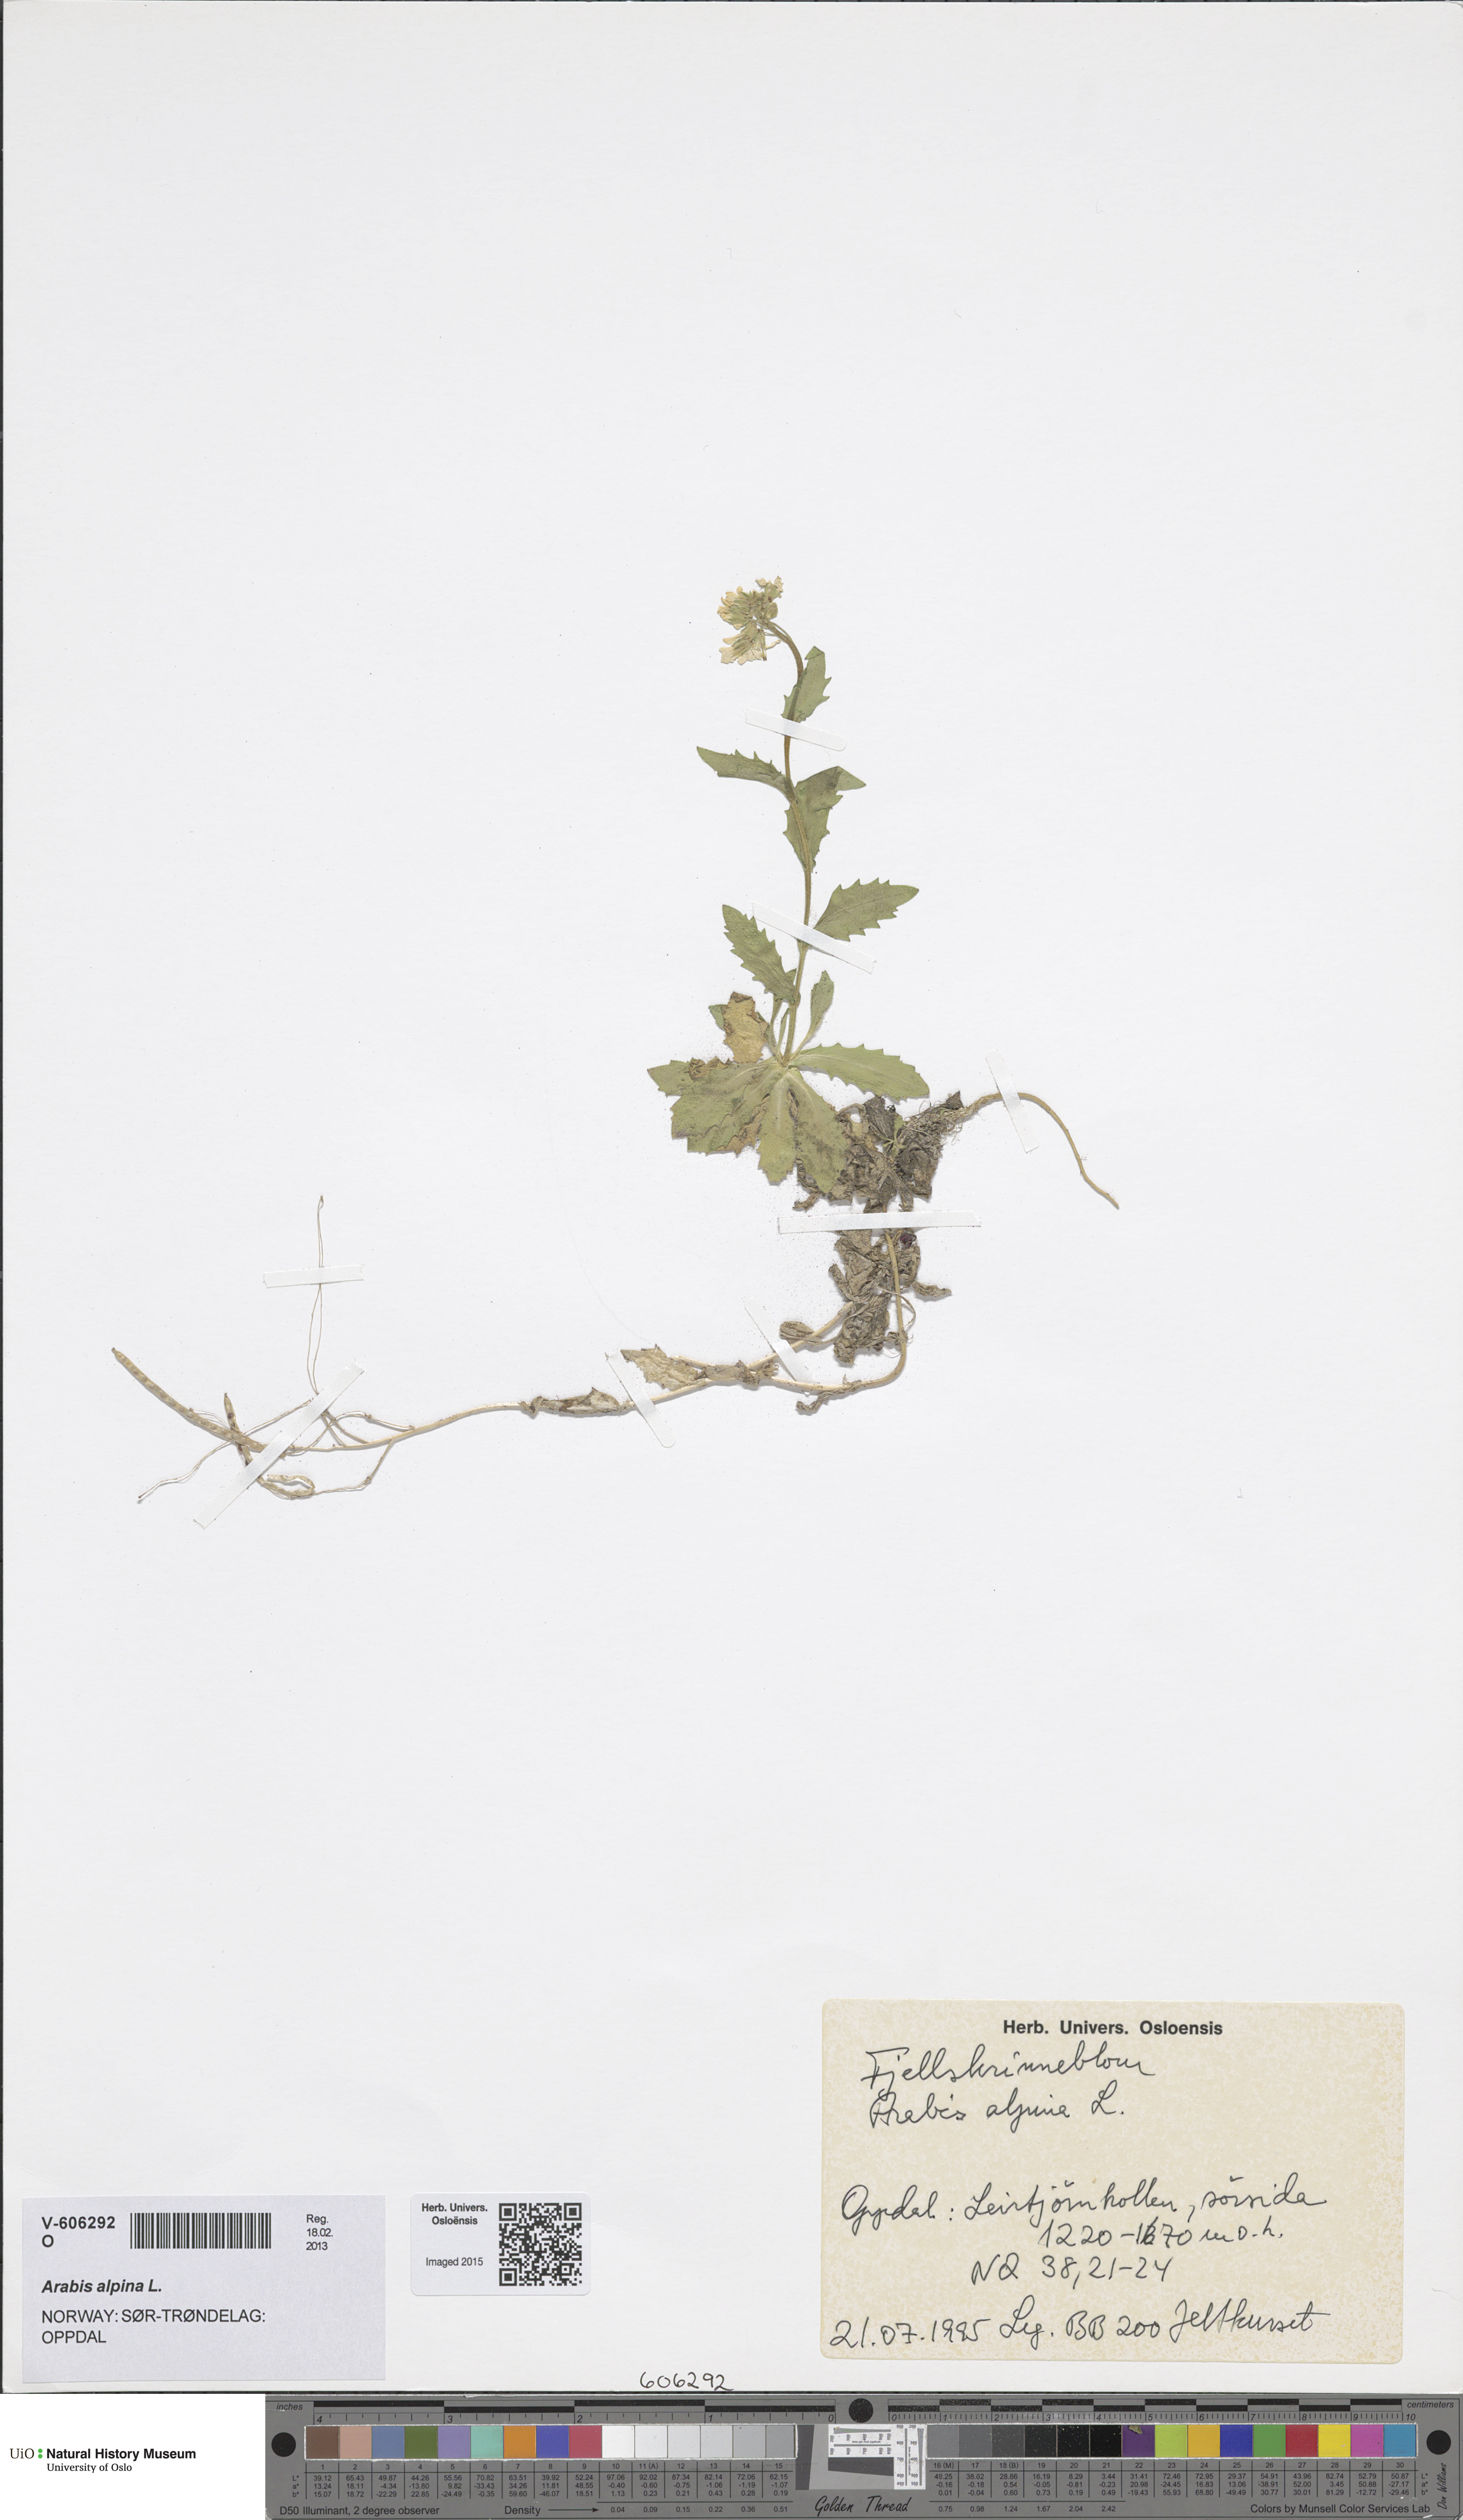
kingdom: Plantae
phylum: Tracheophyta
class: Magnoliopsida
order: Brassicales
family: Brassicaceae
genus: Arabis
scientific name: Arabis alpina
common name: Alpine rock-cress
